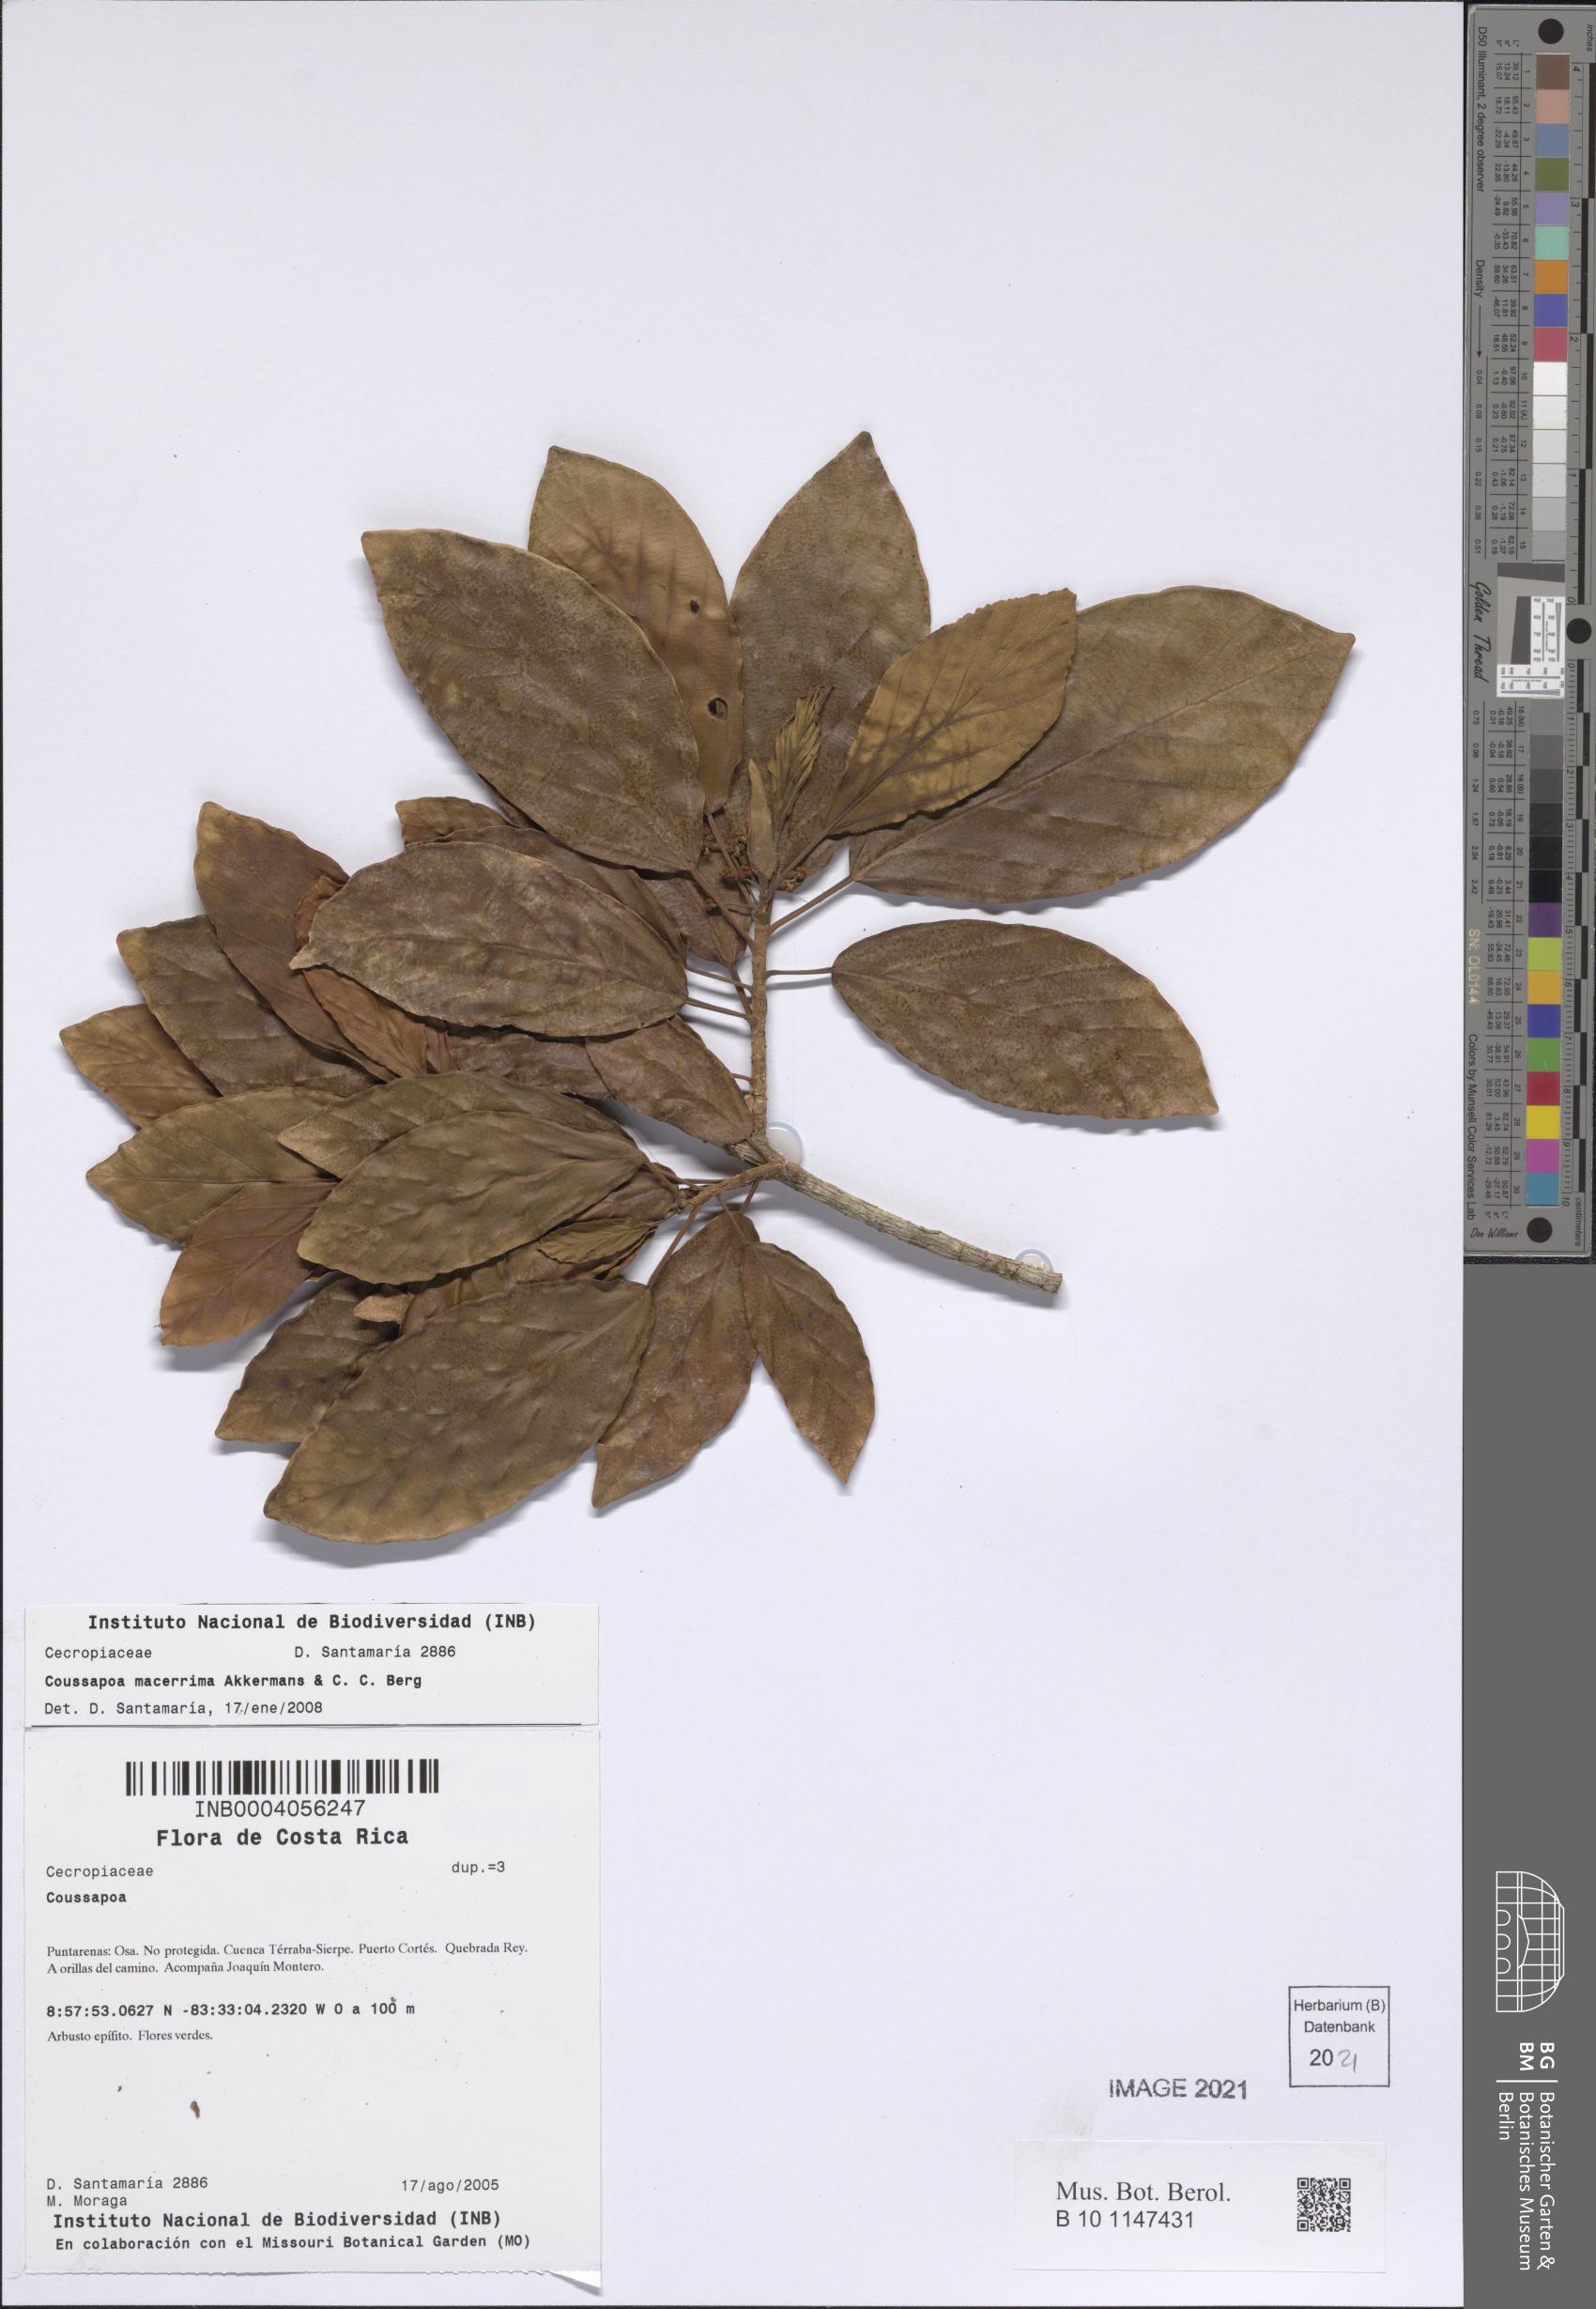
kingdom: Plantae
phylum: Tracheophyta
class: Magnoliopsida
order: Rosales
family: Urticaceae
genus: Coussapoa
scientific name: Coussapoa macerrima
